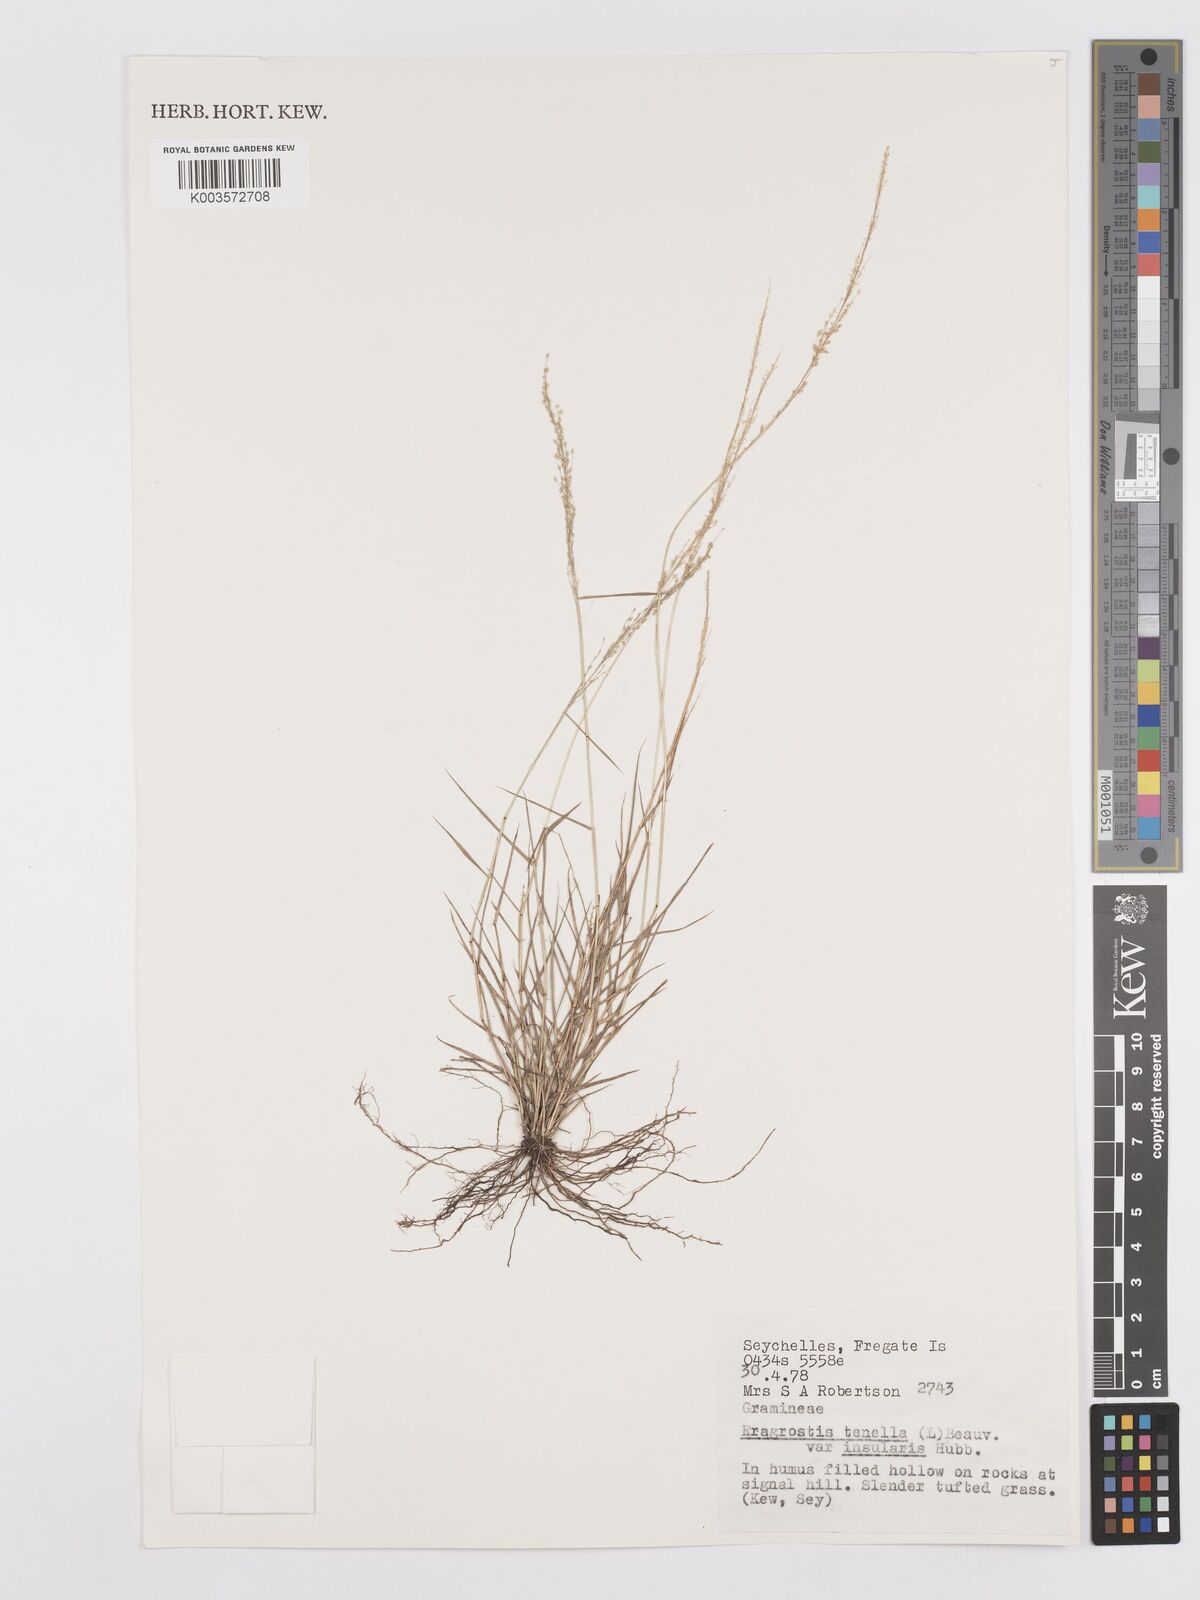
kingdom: Plantae
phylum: Tracheophyta
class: Liliopsida
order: Poales
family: Poaceae
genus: Eragrostis
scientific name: Eragrostis tenella
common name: Japanese lovegrass
